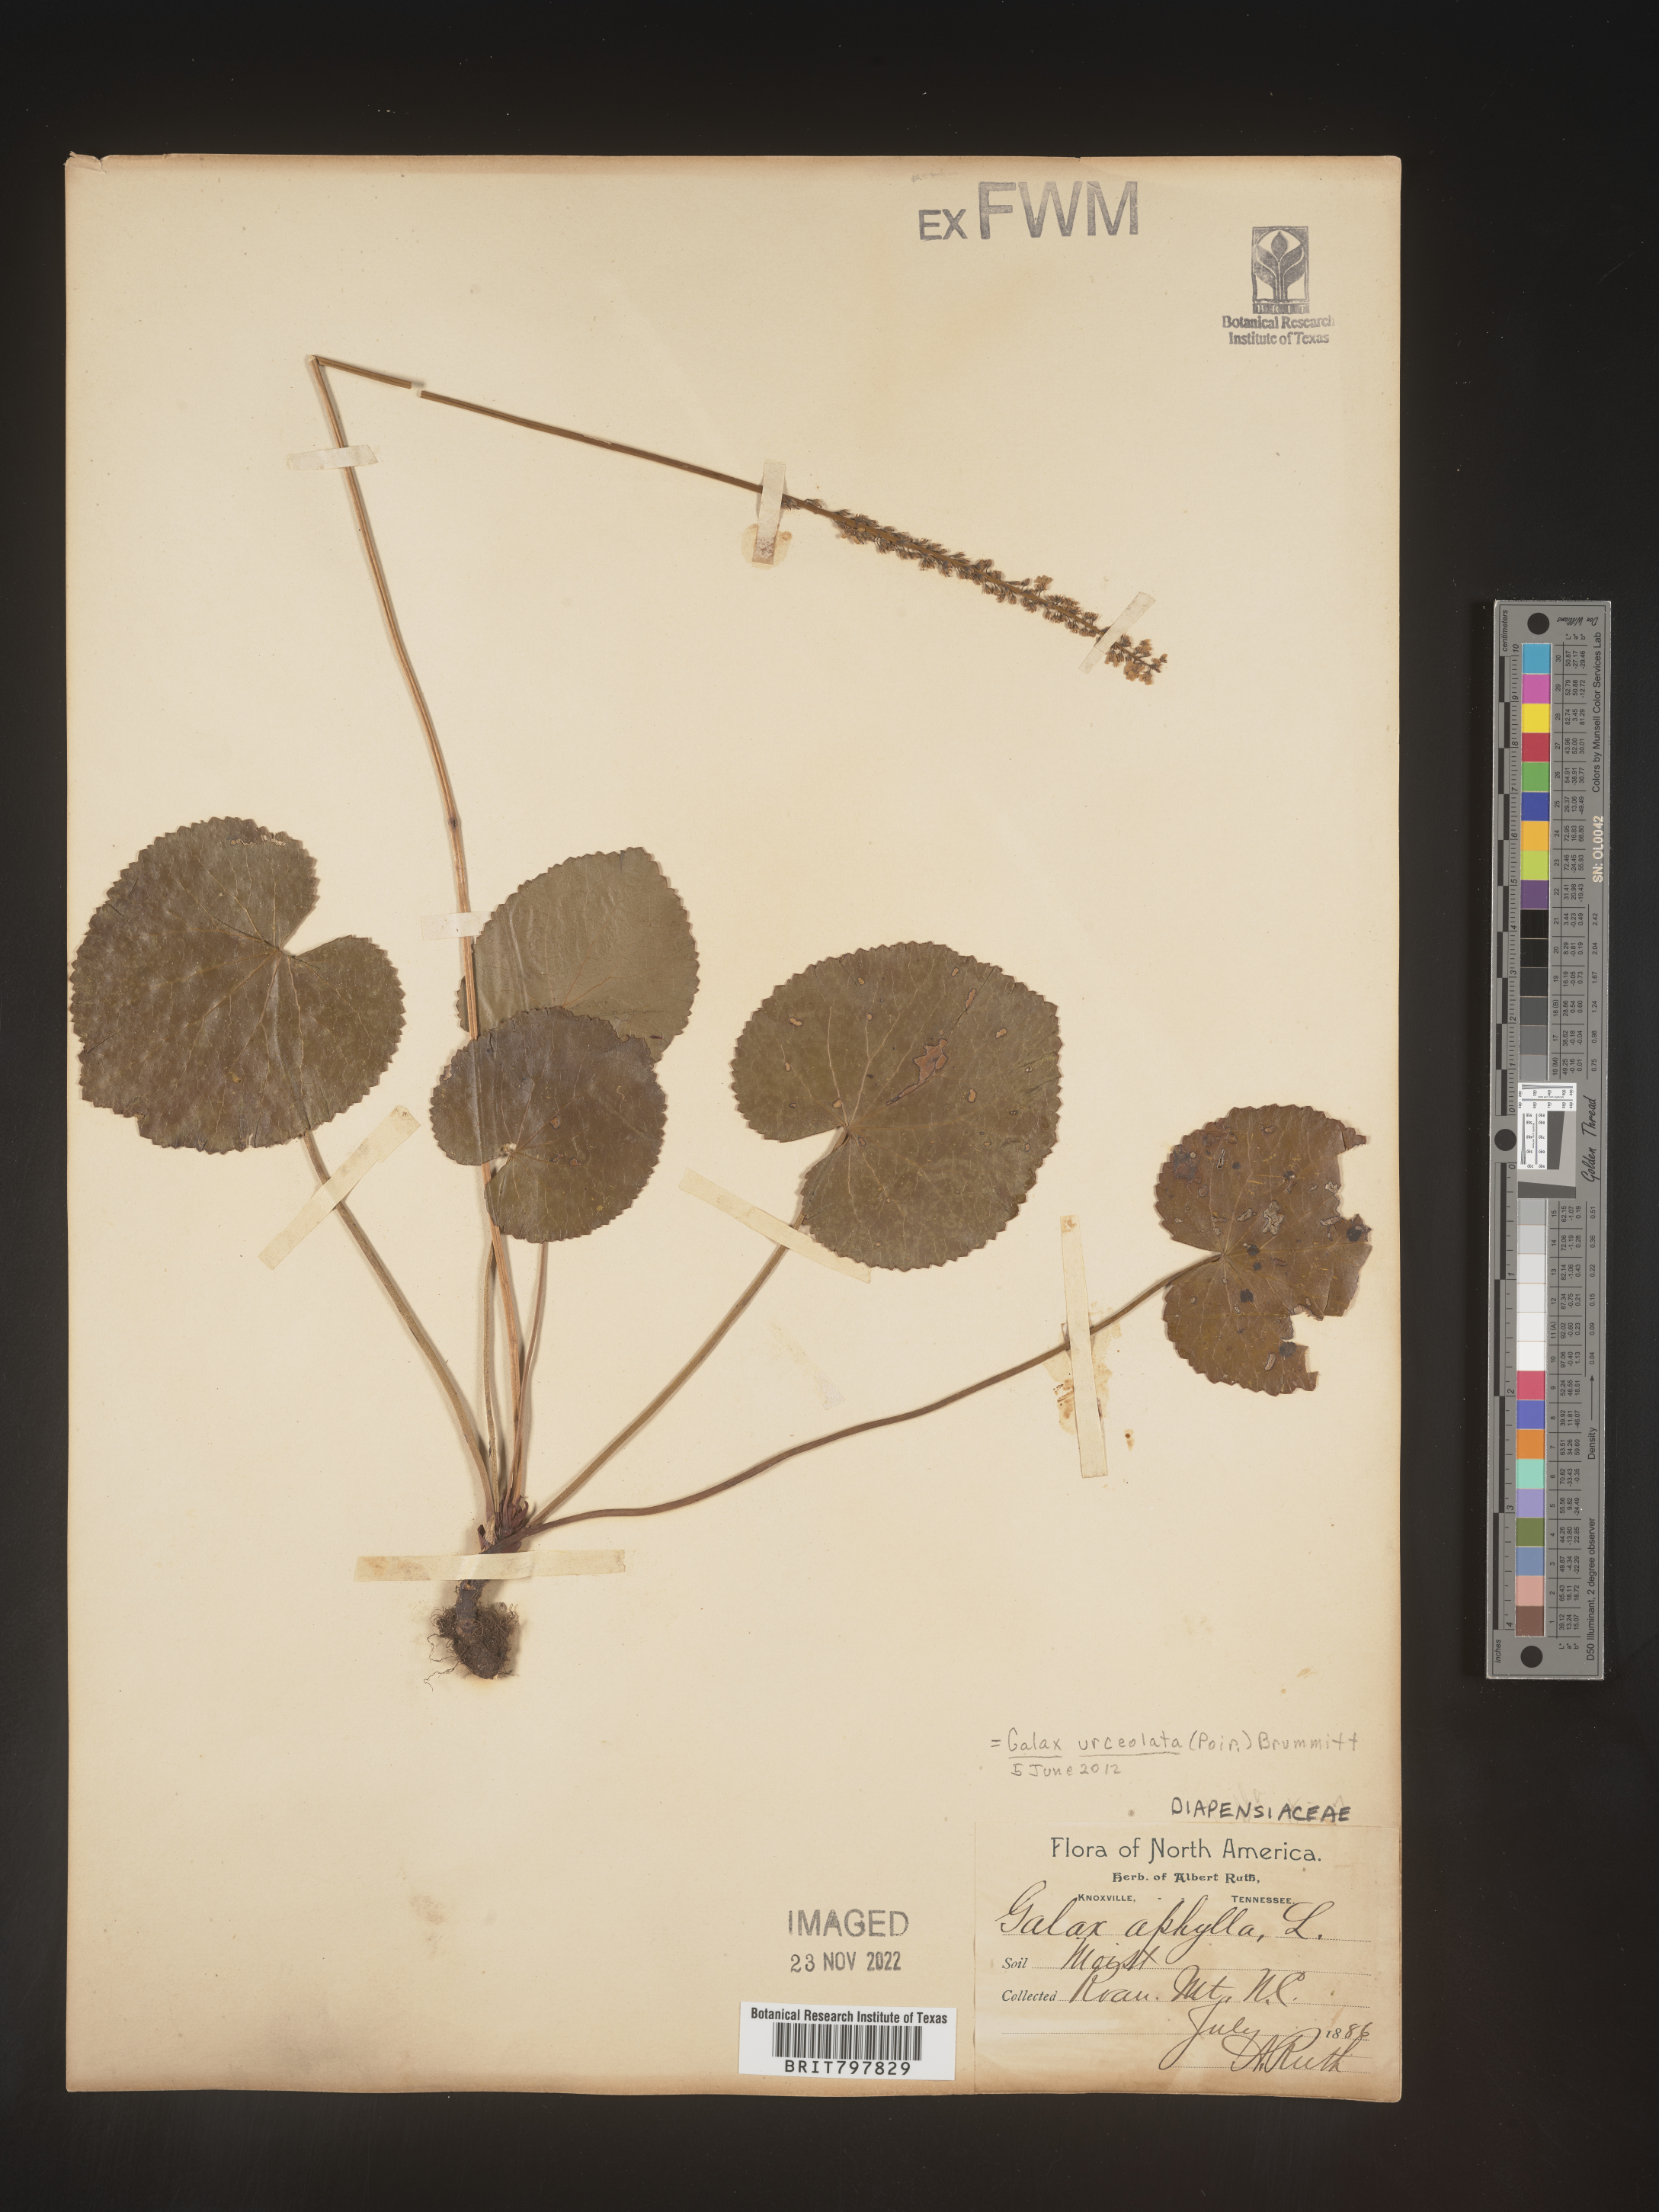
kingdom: Plantae
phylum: Tracheophyta
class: Magnoliopsida
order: Ericales
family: Diapensiaceae
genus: Galax
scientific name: Galax
